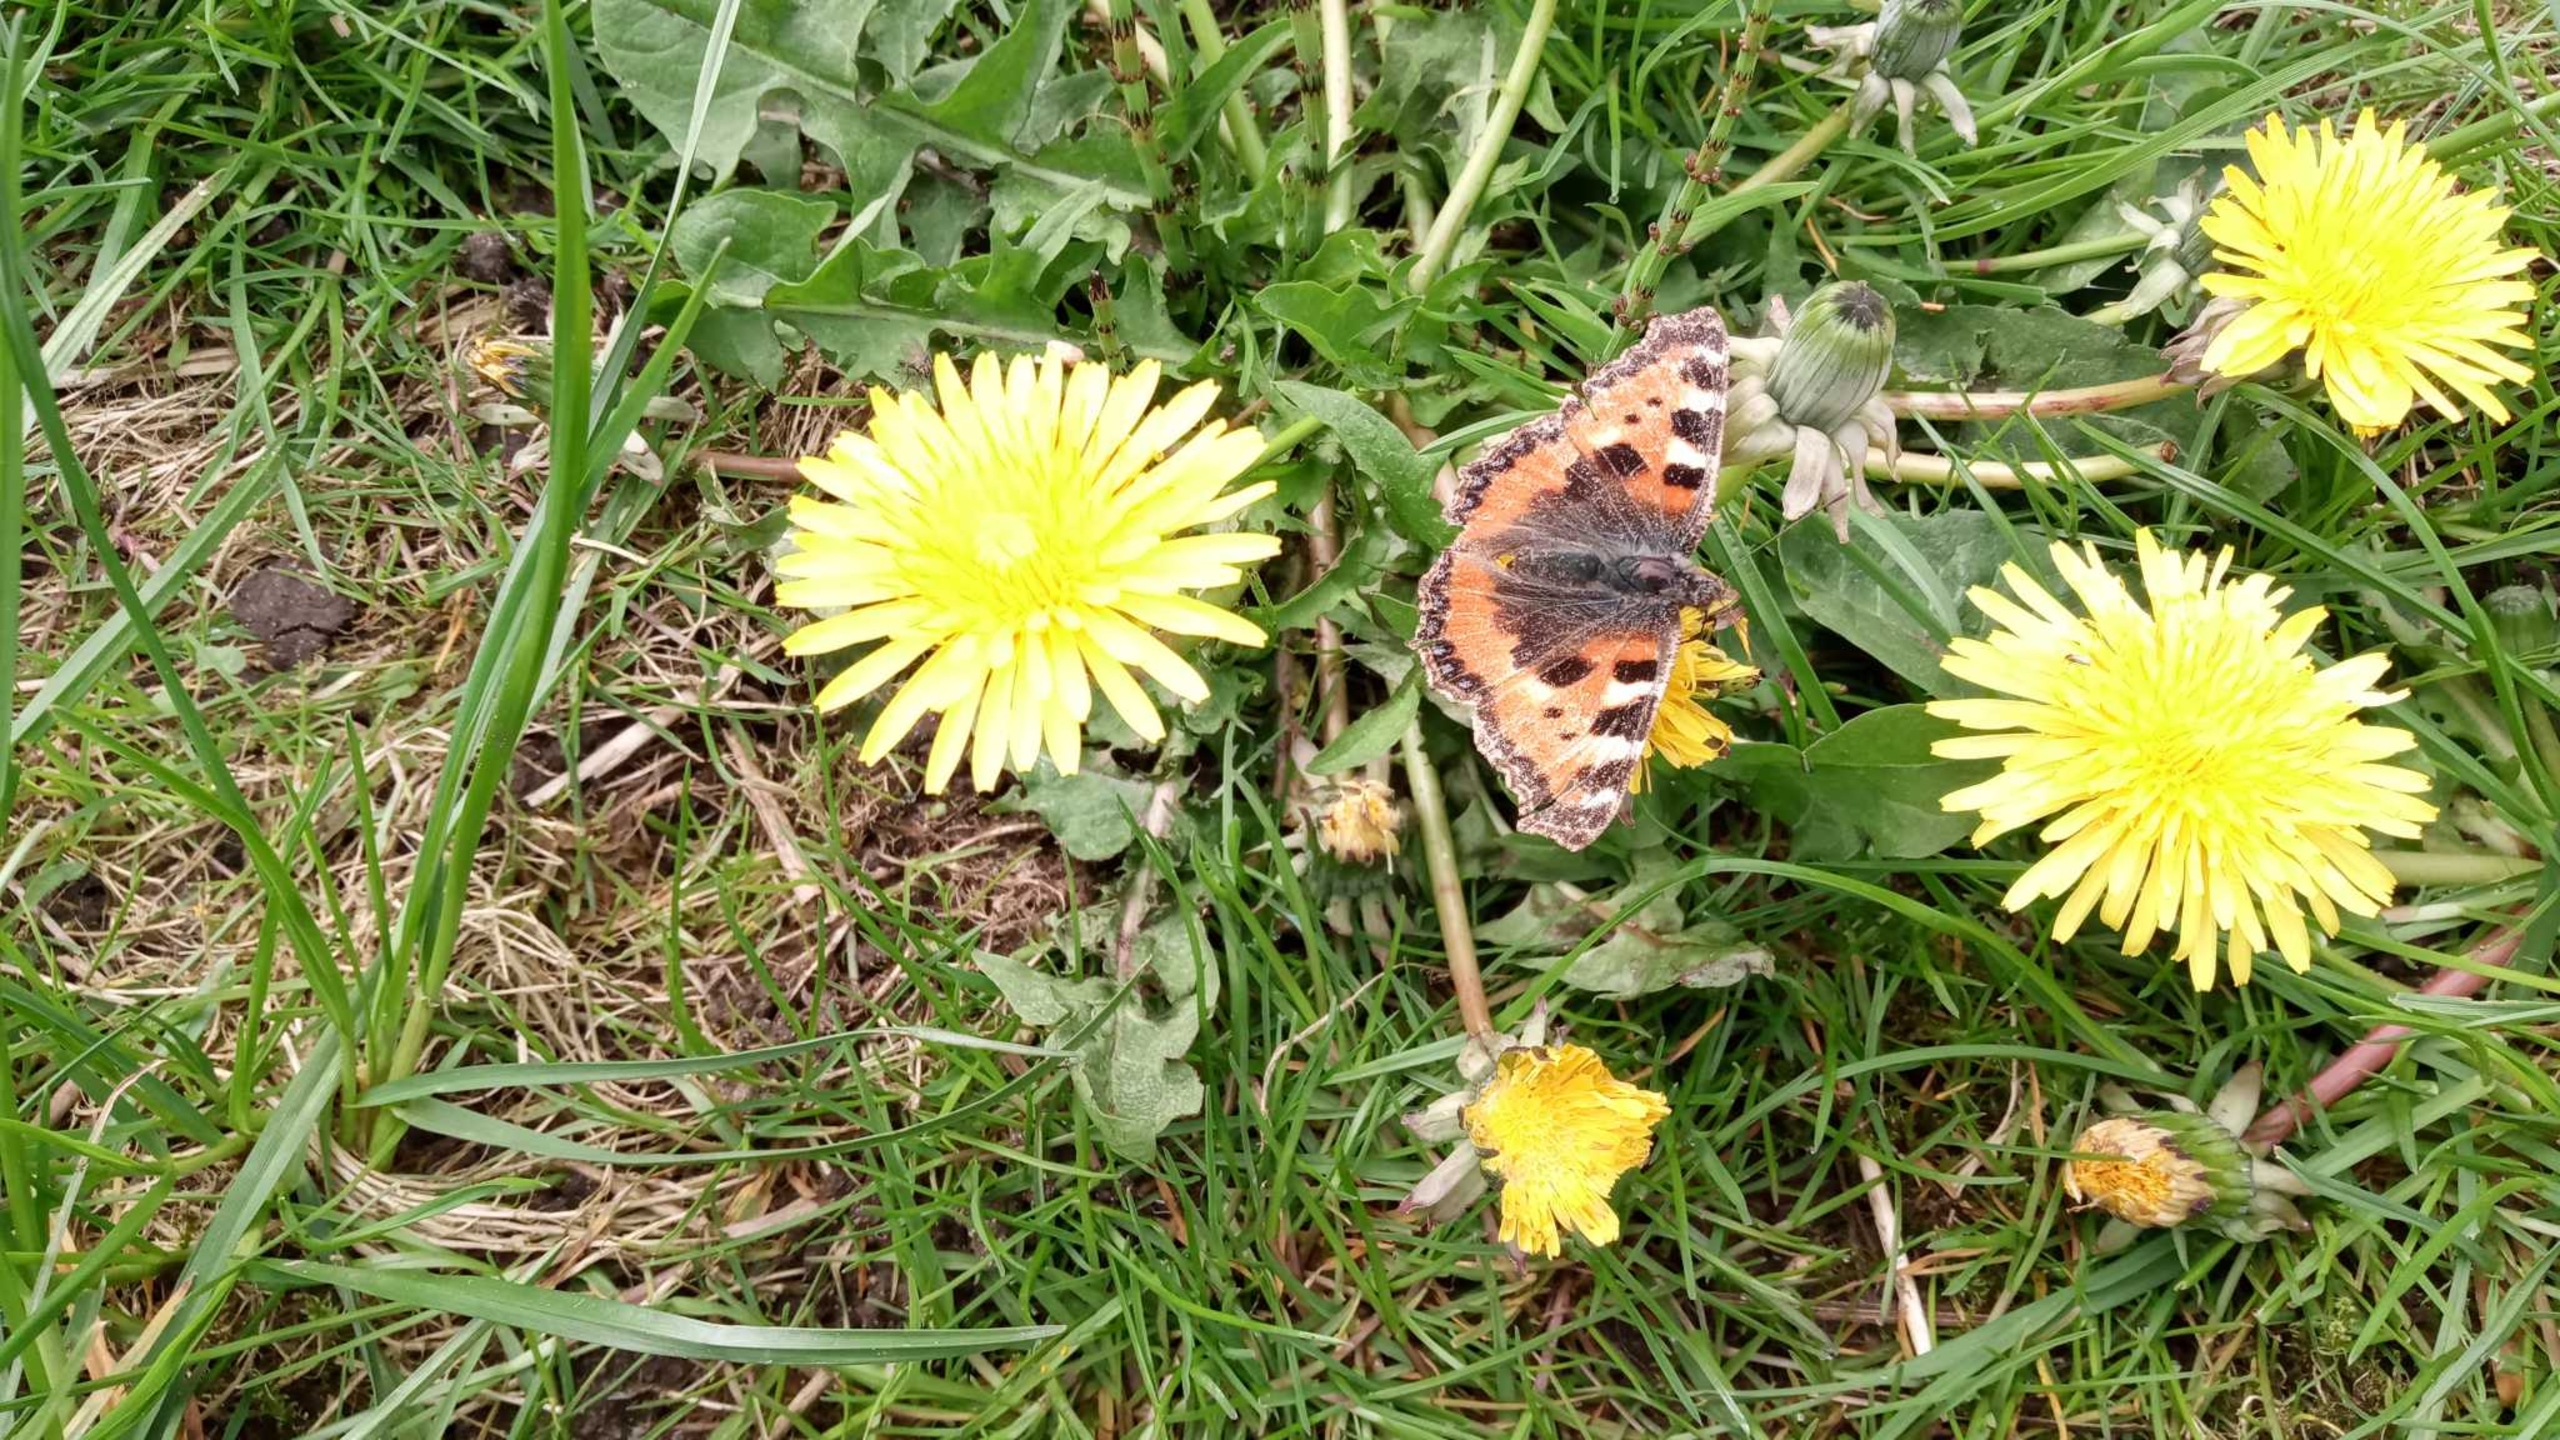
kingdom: Animalia
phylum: Arthropoda
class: Insecta
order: Lepidoptera
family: Nymphalidae
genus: Aglais
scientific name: Aglais urticae
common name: Nældens takvinge
